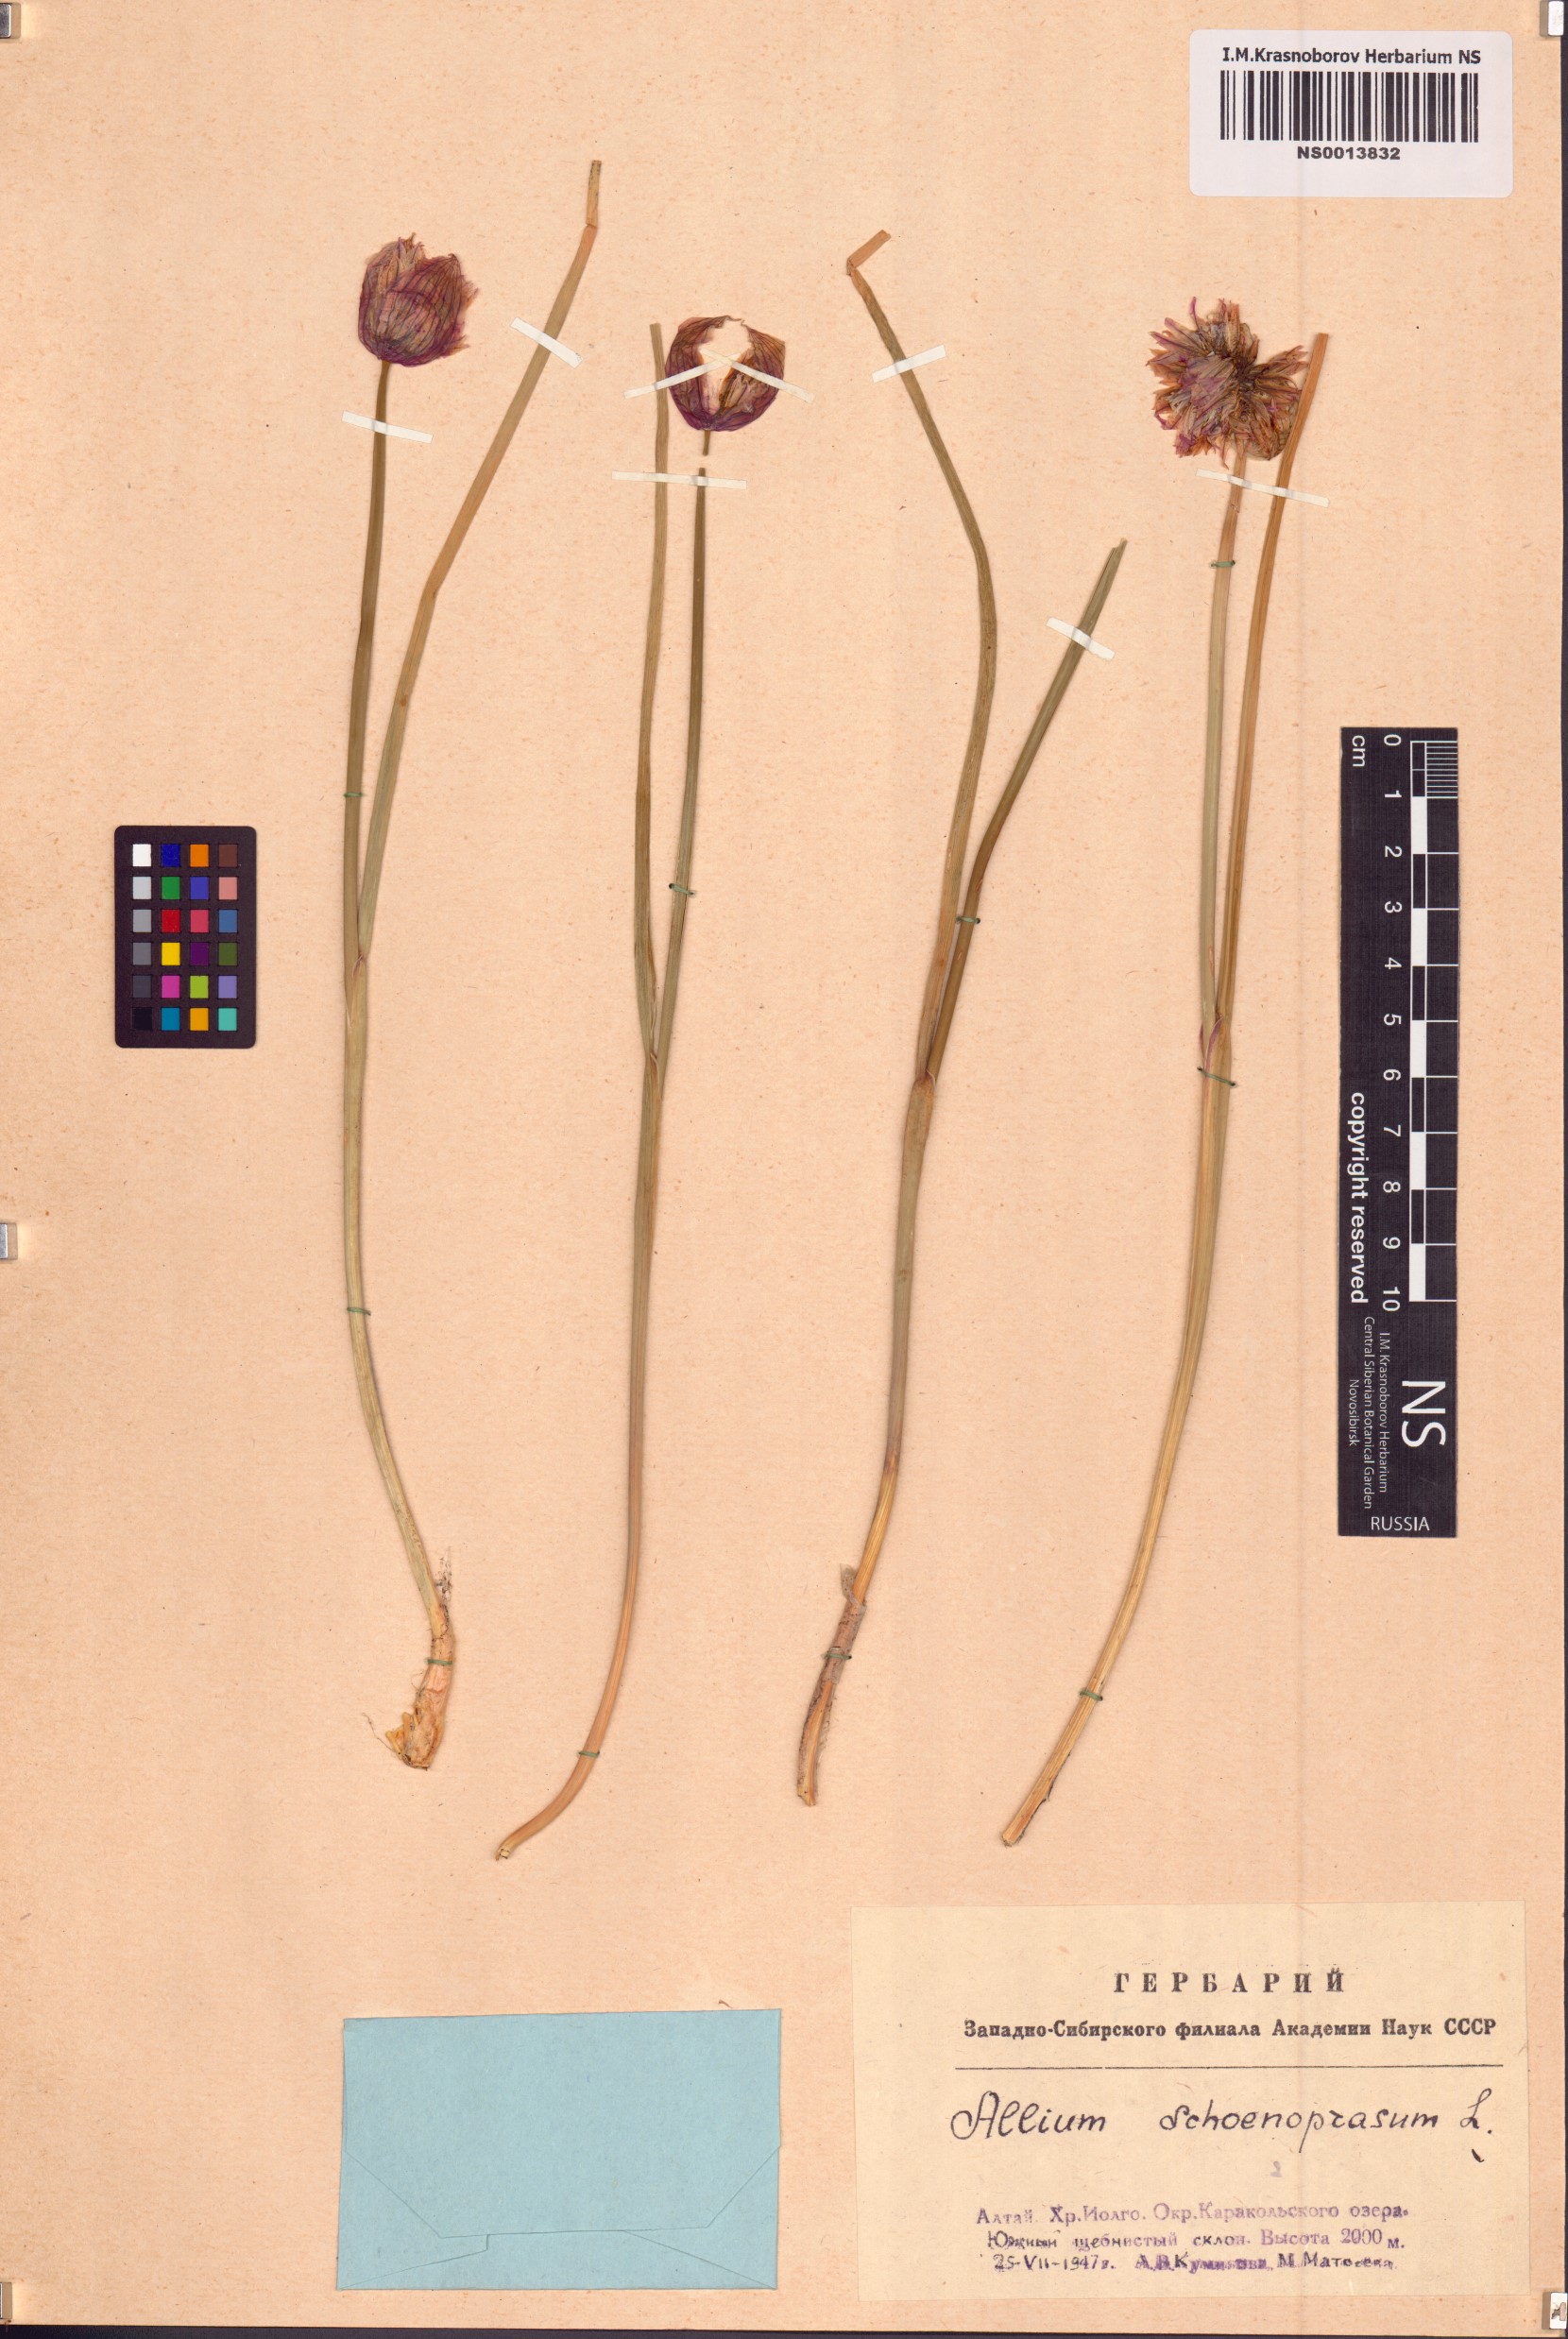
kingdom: Plantae
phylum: Tracheophyta
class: Liliopsida
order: Asparagales
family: Amaryllidaceae
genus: Allium
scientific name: Allium schoenoprasum
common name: Chives
